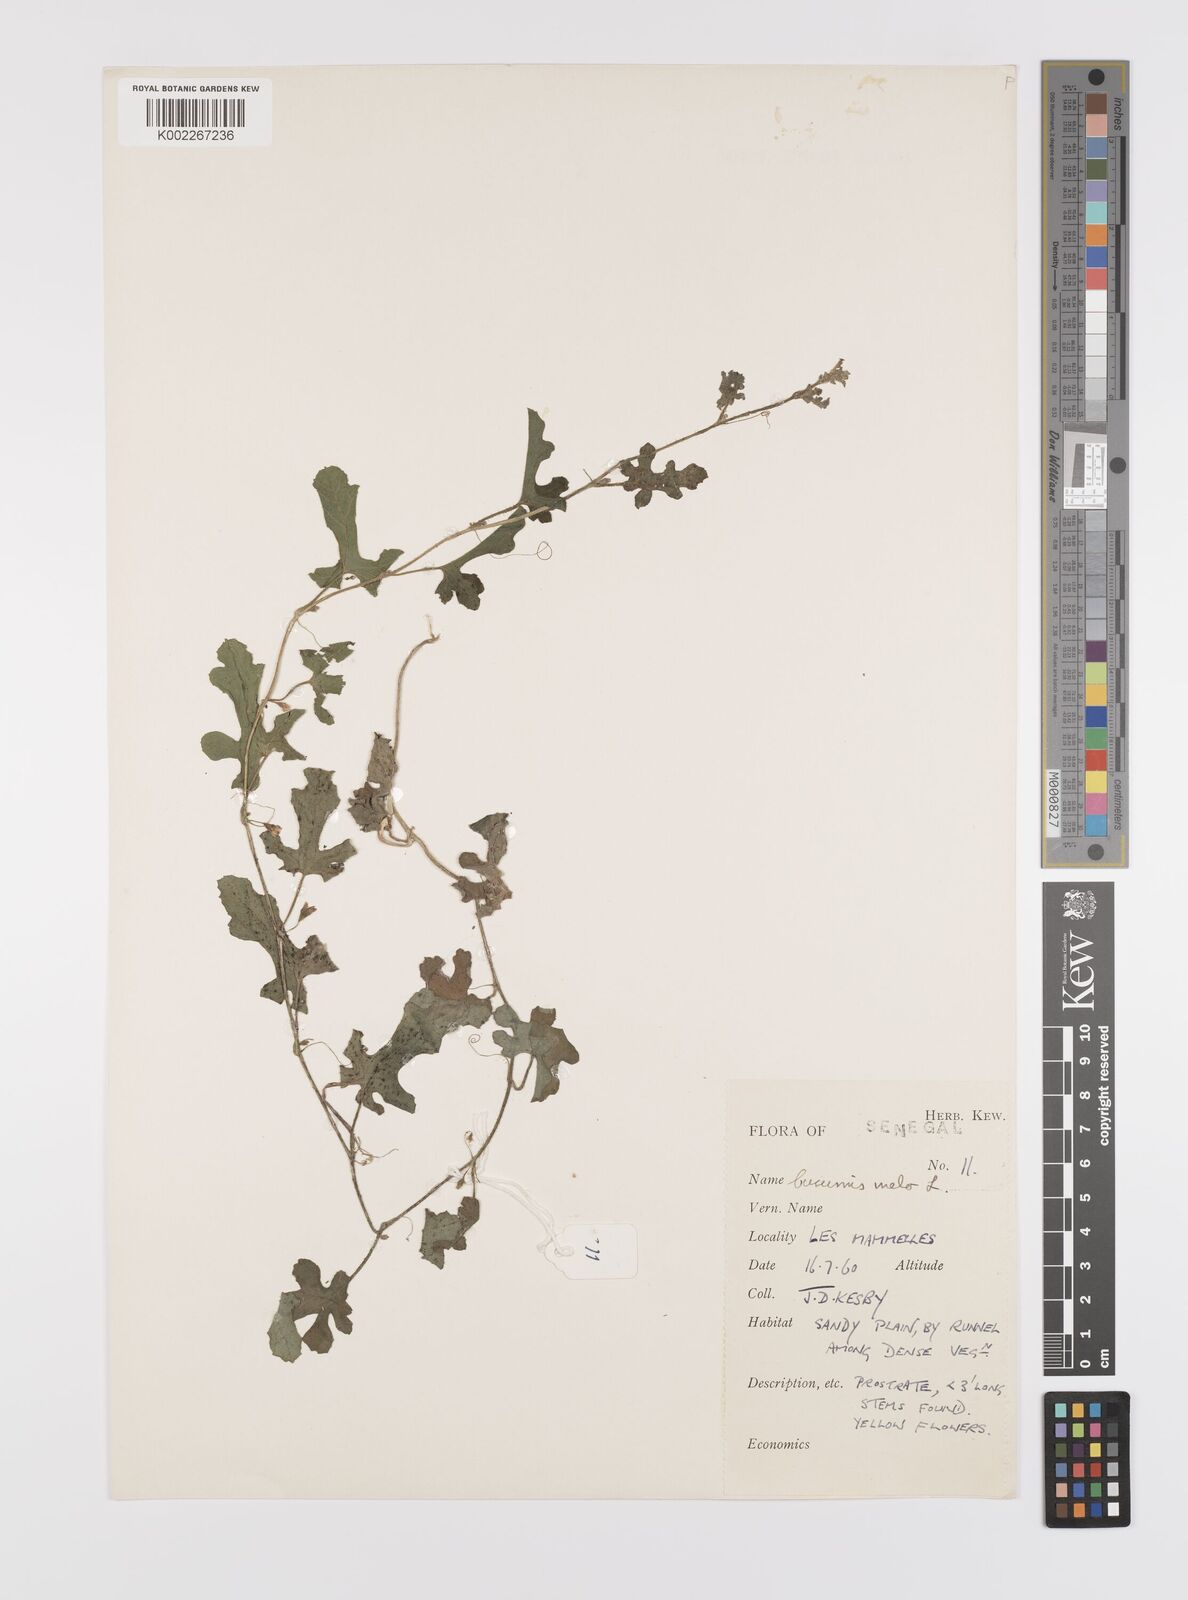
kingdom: Plantae
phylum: Tracheophyta
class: Magnoliopsida
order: Cucurbitales
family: Cucurbitaceae
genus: Cucumis
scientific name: Cucumis melo
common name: Melon
